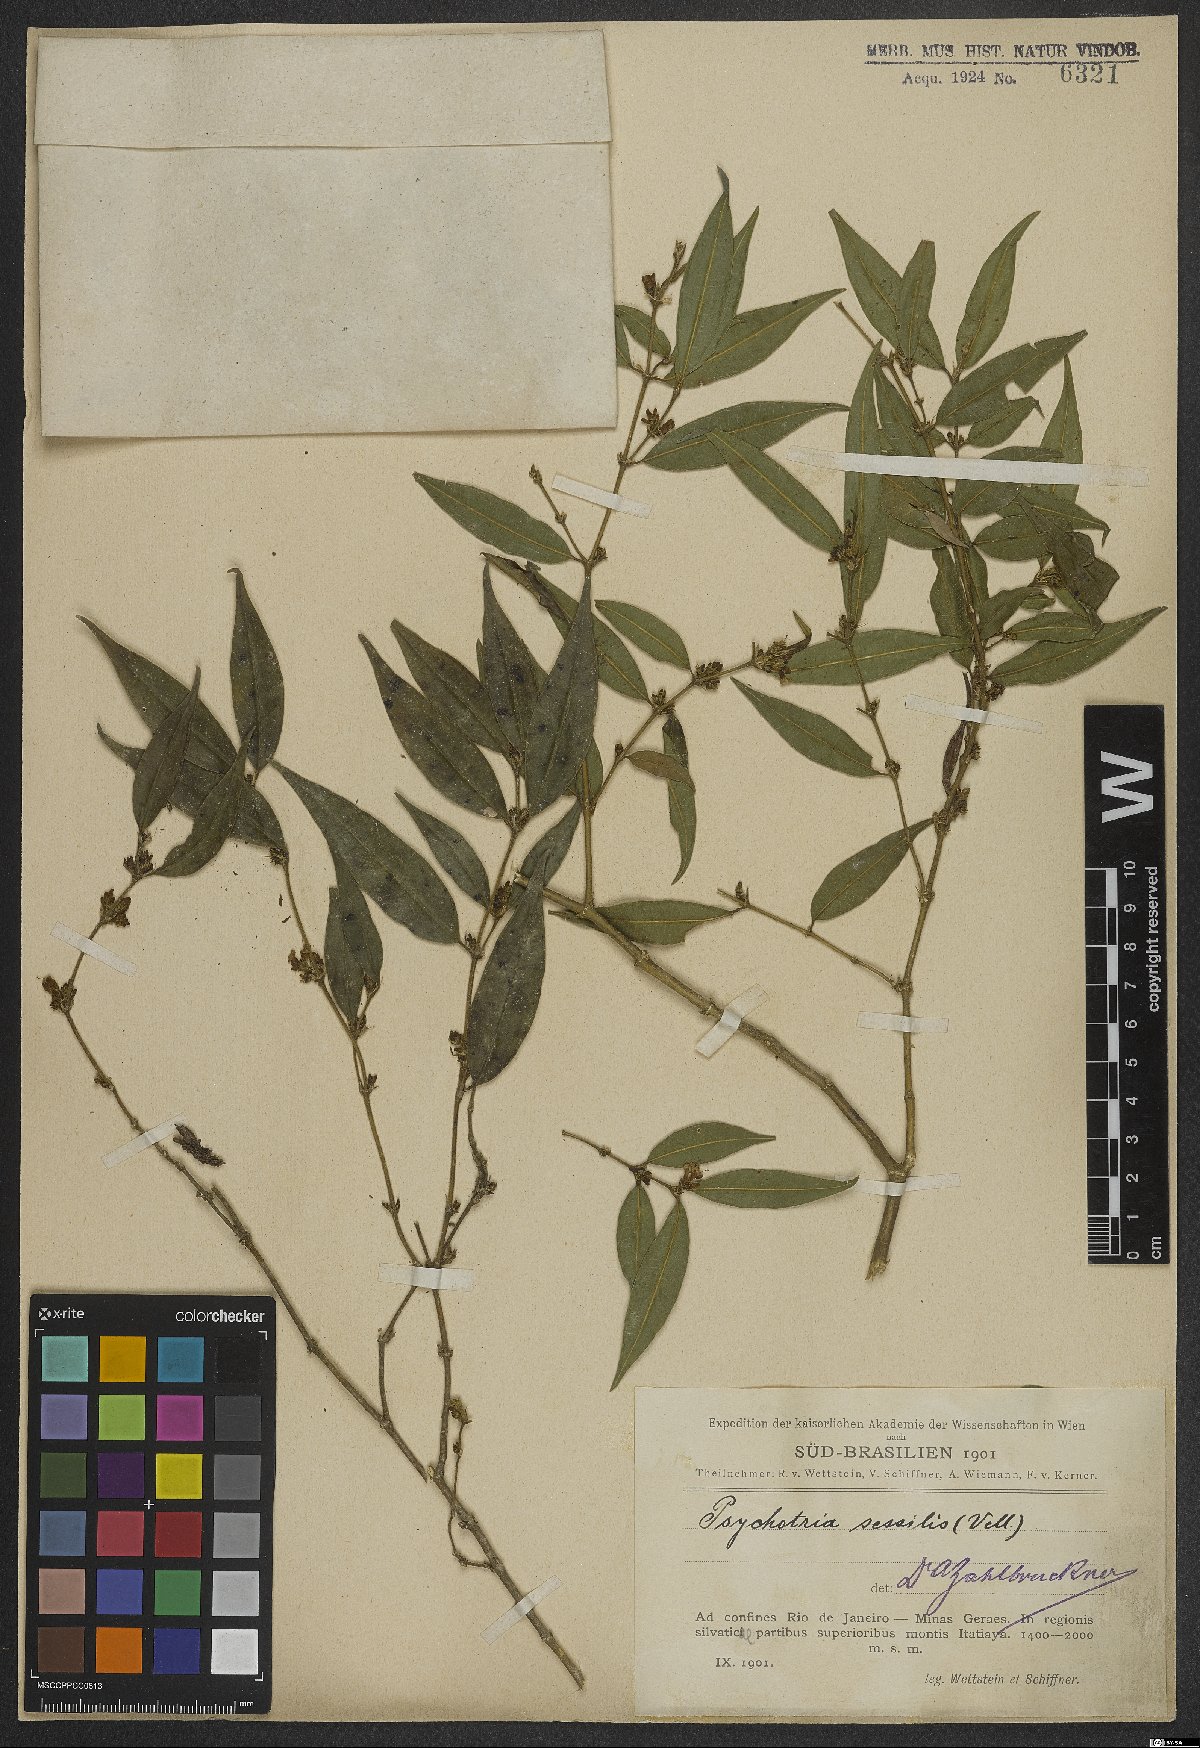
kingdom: Plantae
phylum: Tracheophyta
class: Magnoliopsida
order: Gentianales
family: Rubiaceae
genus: Rudgea
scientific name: Rudgea sessilis
